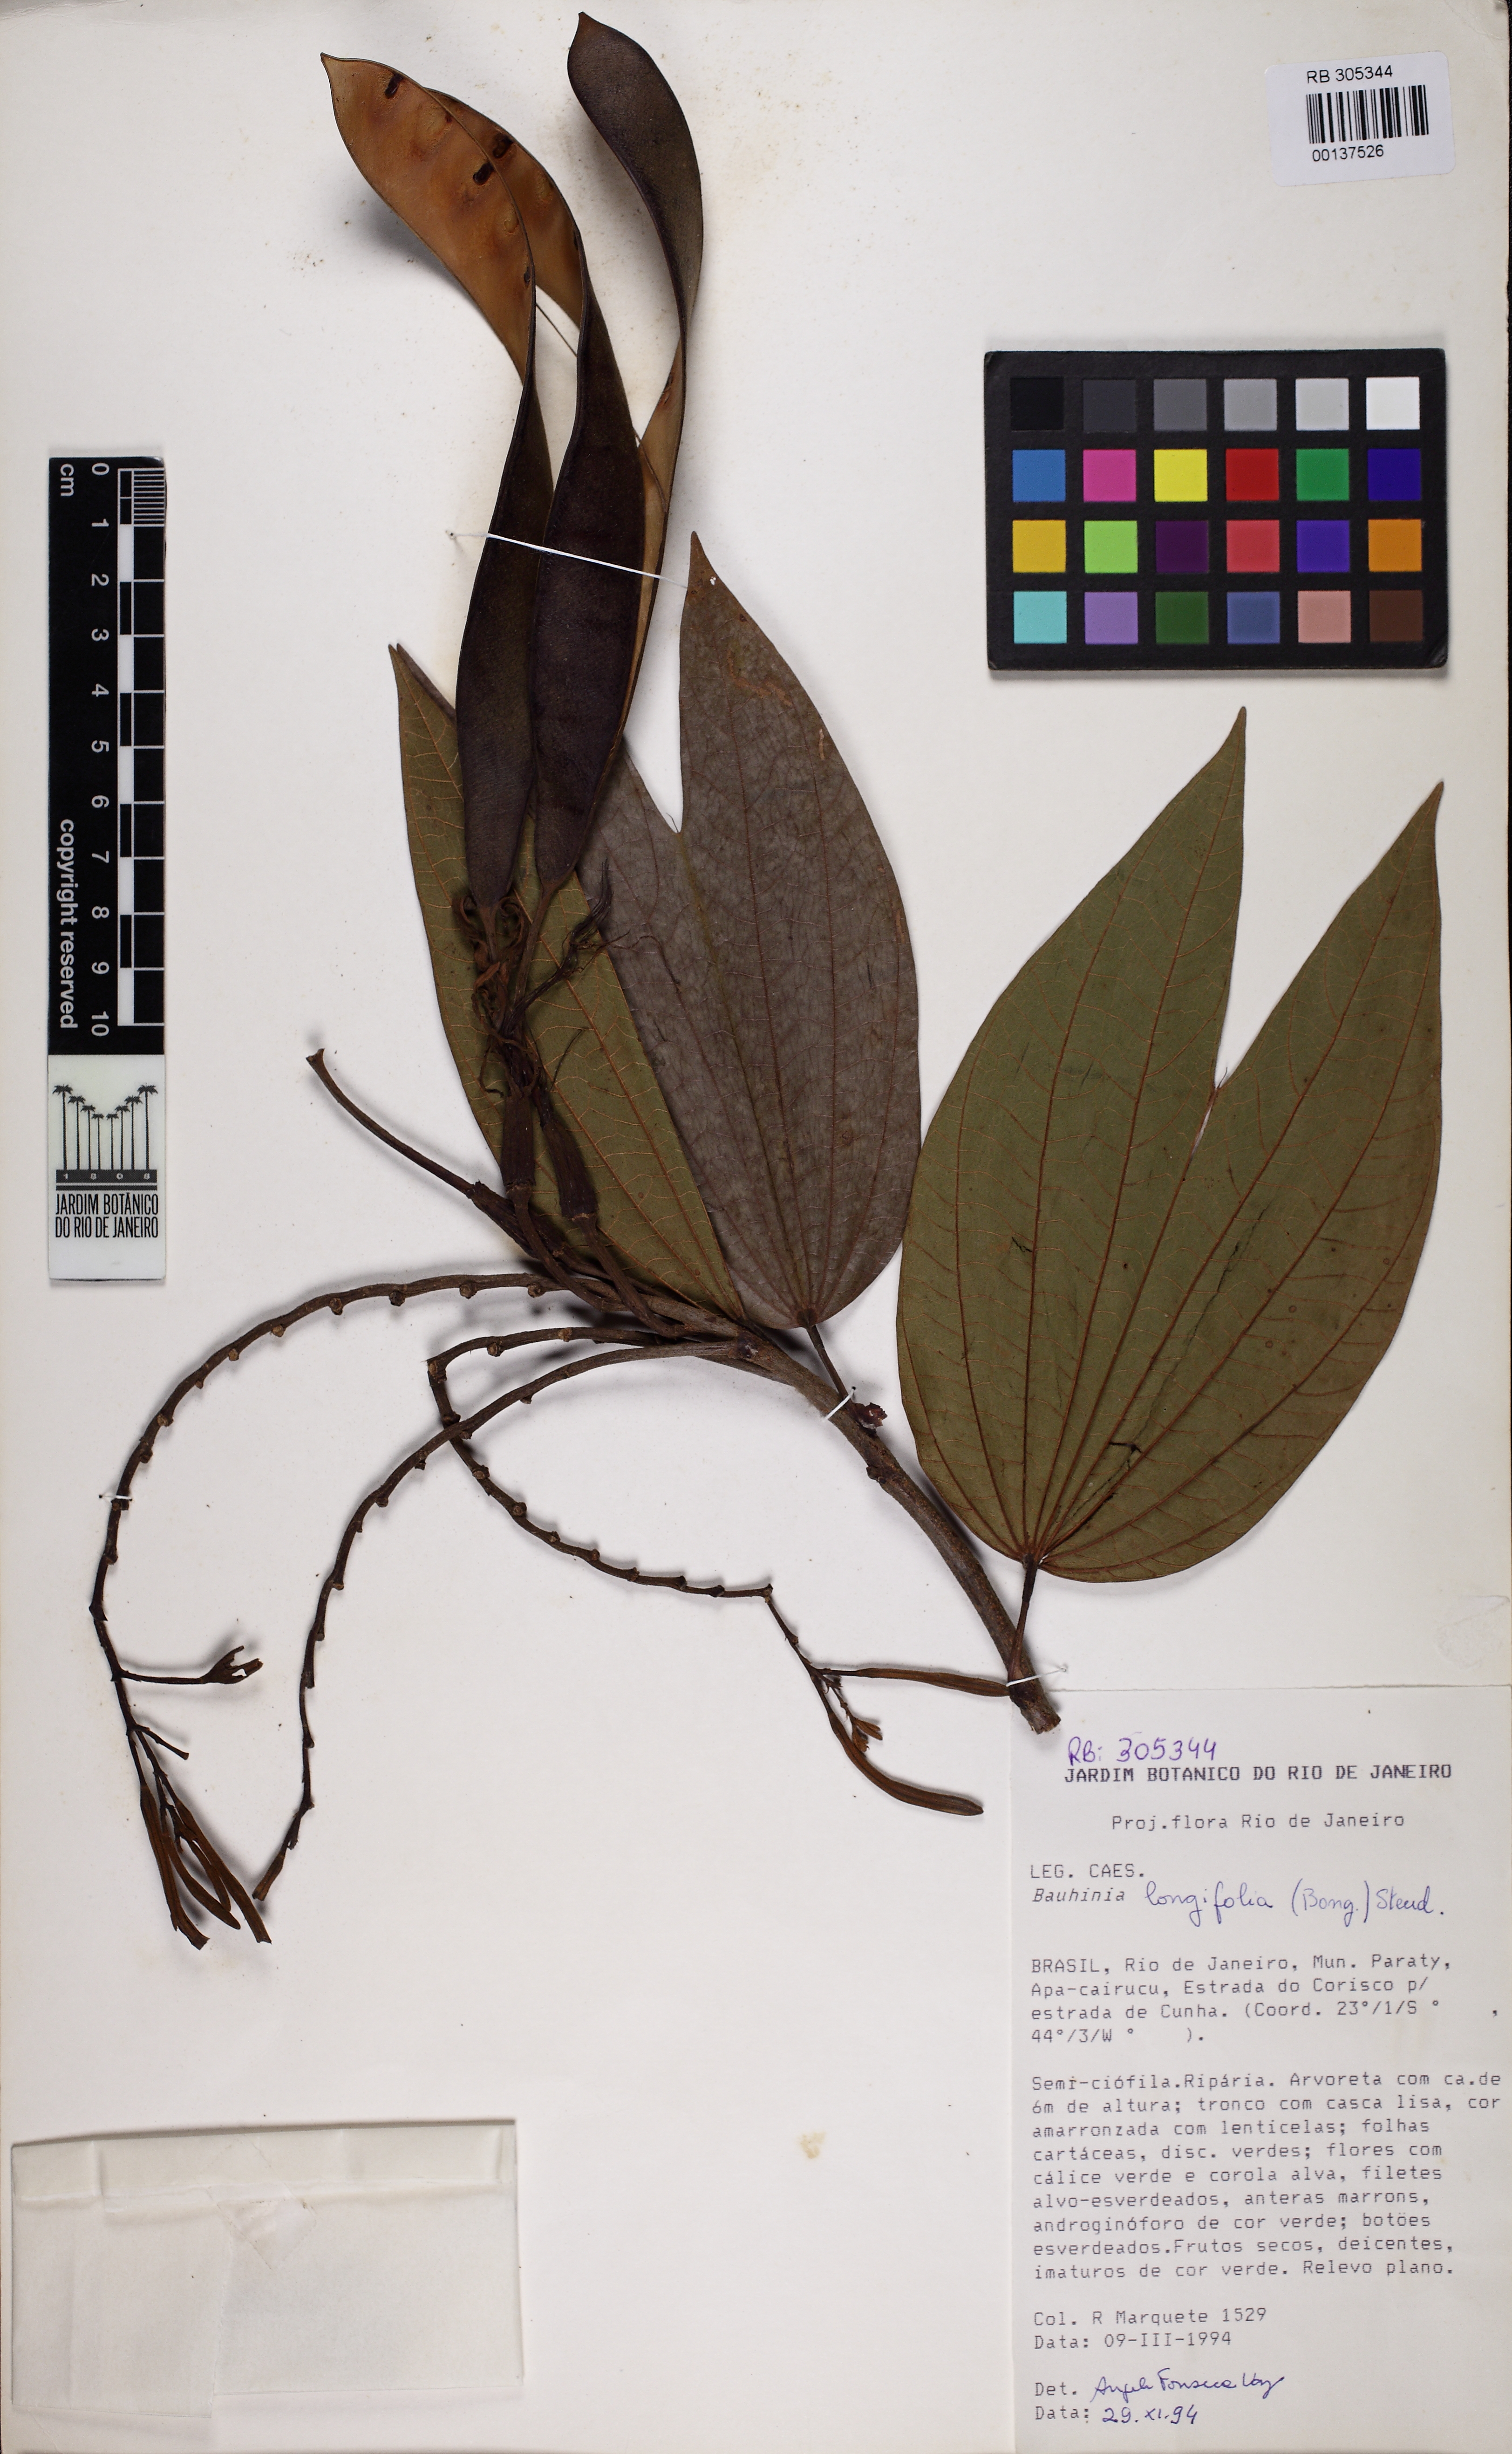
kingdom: Plantae
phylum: Tracheophyta
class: Magnoliopsida
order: Fabales
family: Fabaceae
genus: Bauhinia
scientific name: Bauhinia longifolia
